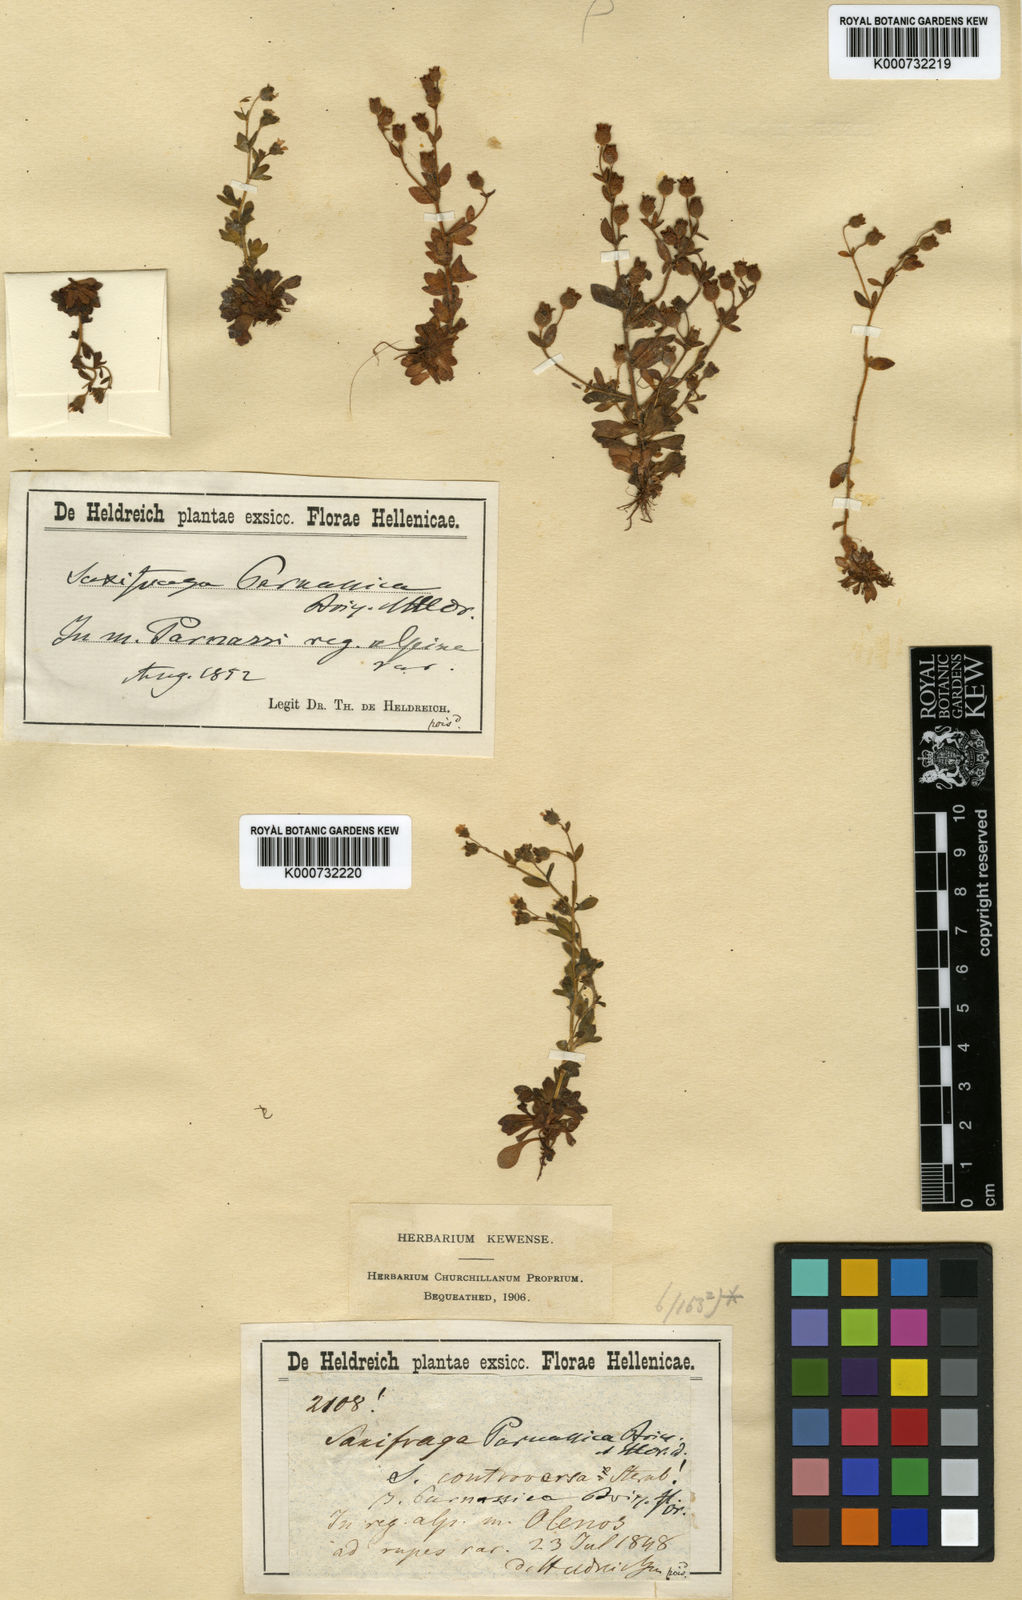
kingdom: Plantae
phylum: Tracheophyta
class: Magnoliopsida
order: Saxifragales
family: Saxifragaceae
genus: Saxifraga
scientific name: Saxifraga tridactylites
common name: Rue-leaved saxifrage
